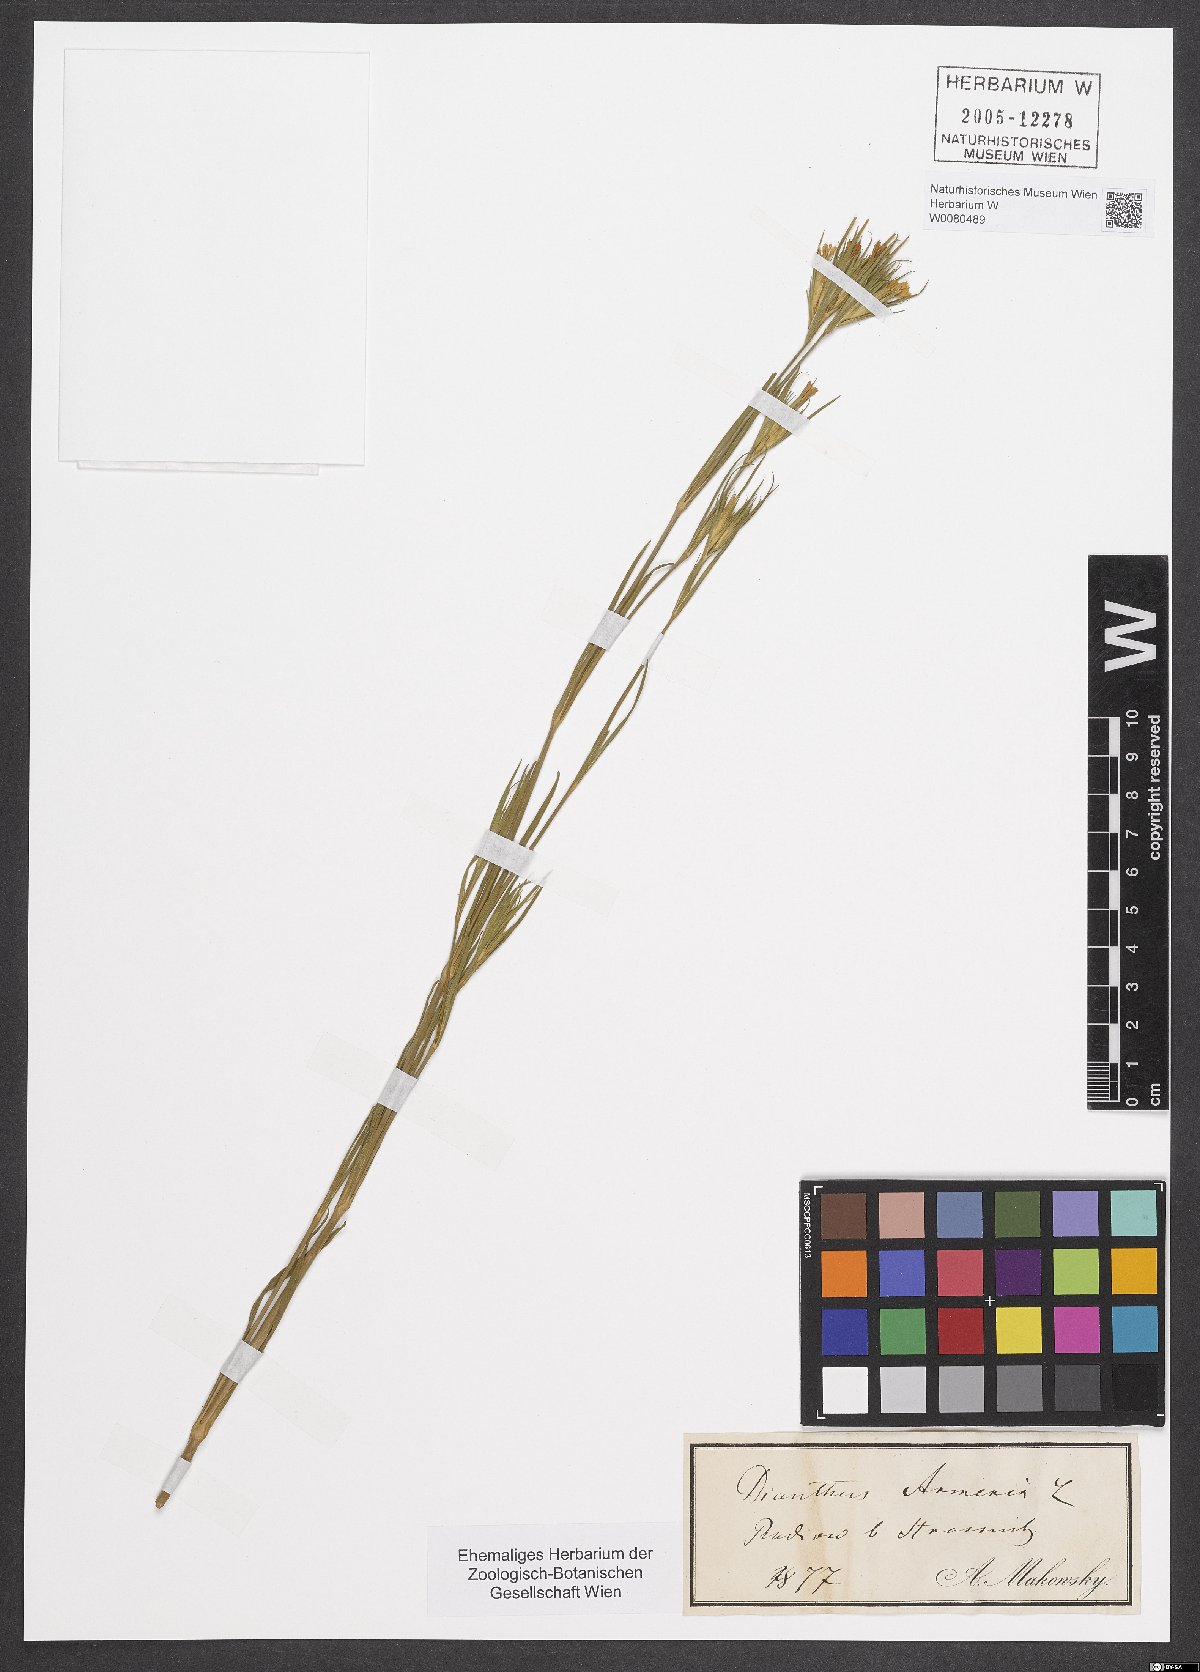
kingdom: Plantae
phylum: Tracheophyta
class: Magnoliopsida
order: Caryophyllales
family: Caryophyllaceae
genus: Dianthus
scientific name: Dianthus armeria
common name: Deptford pink
